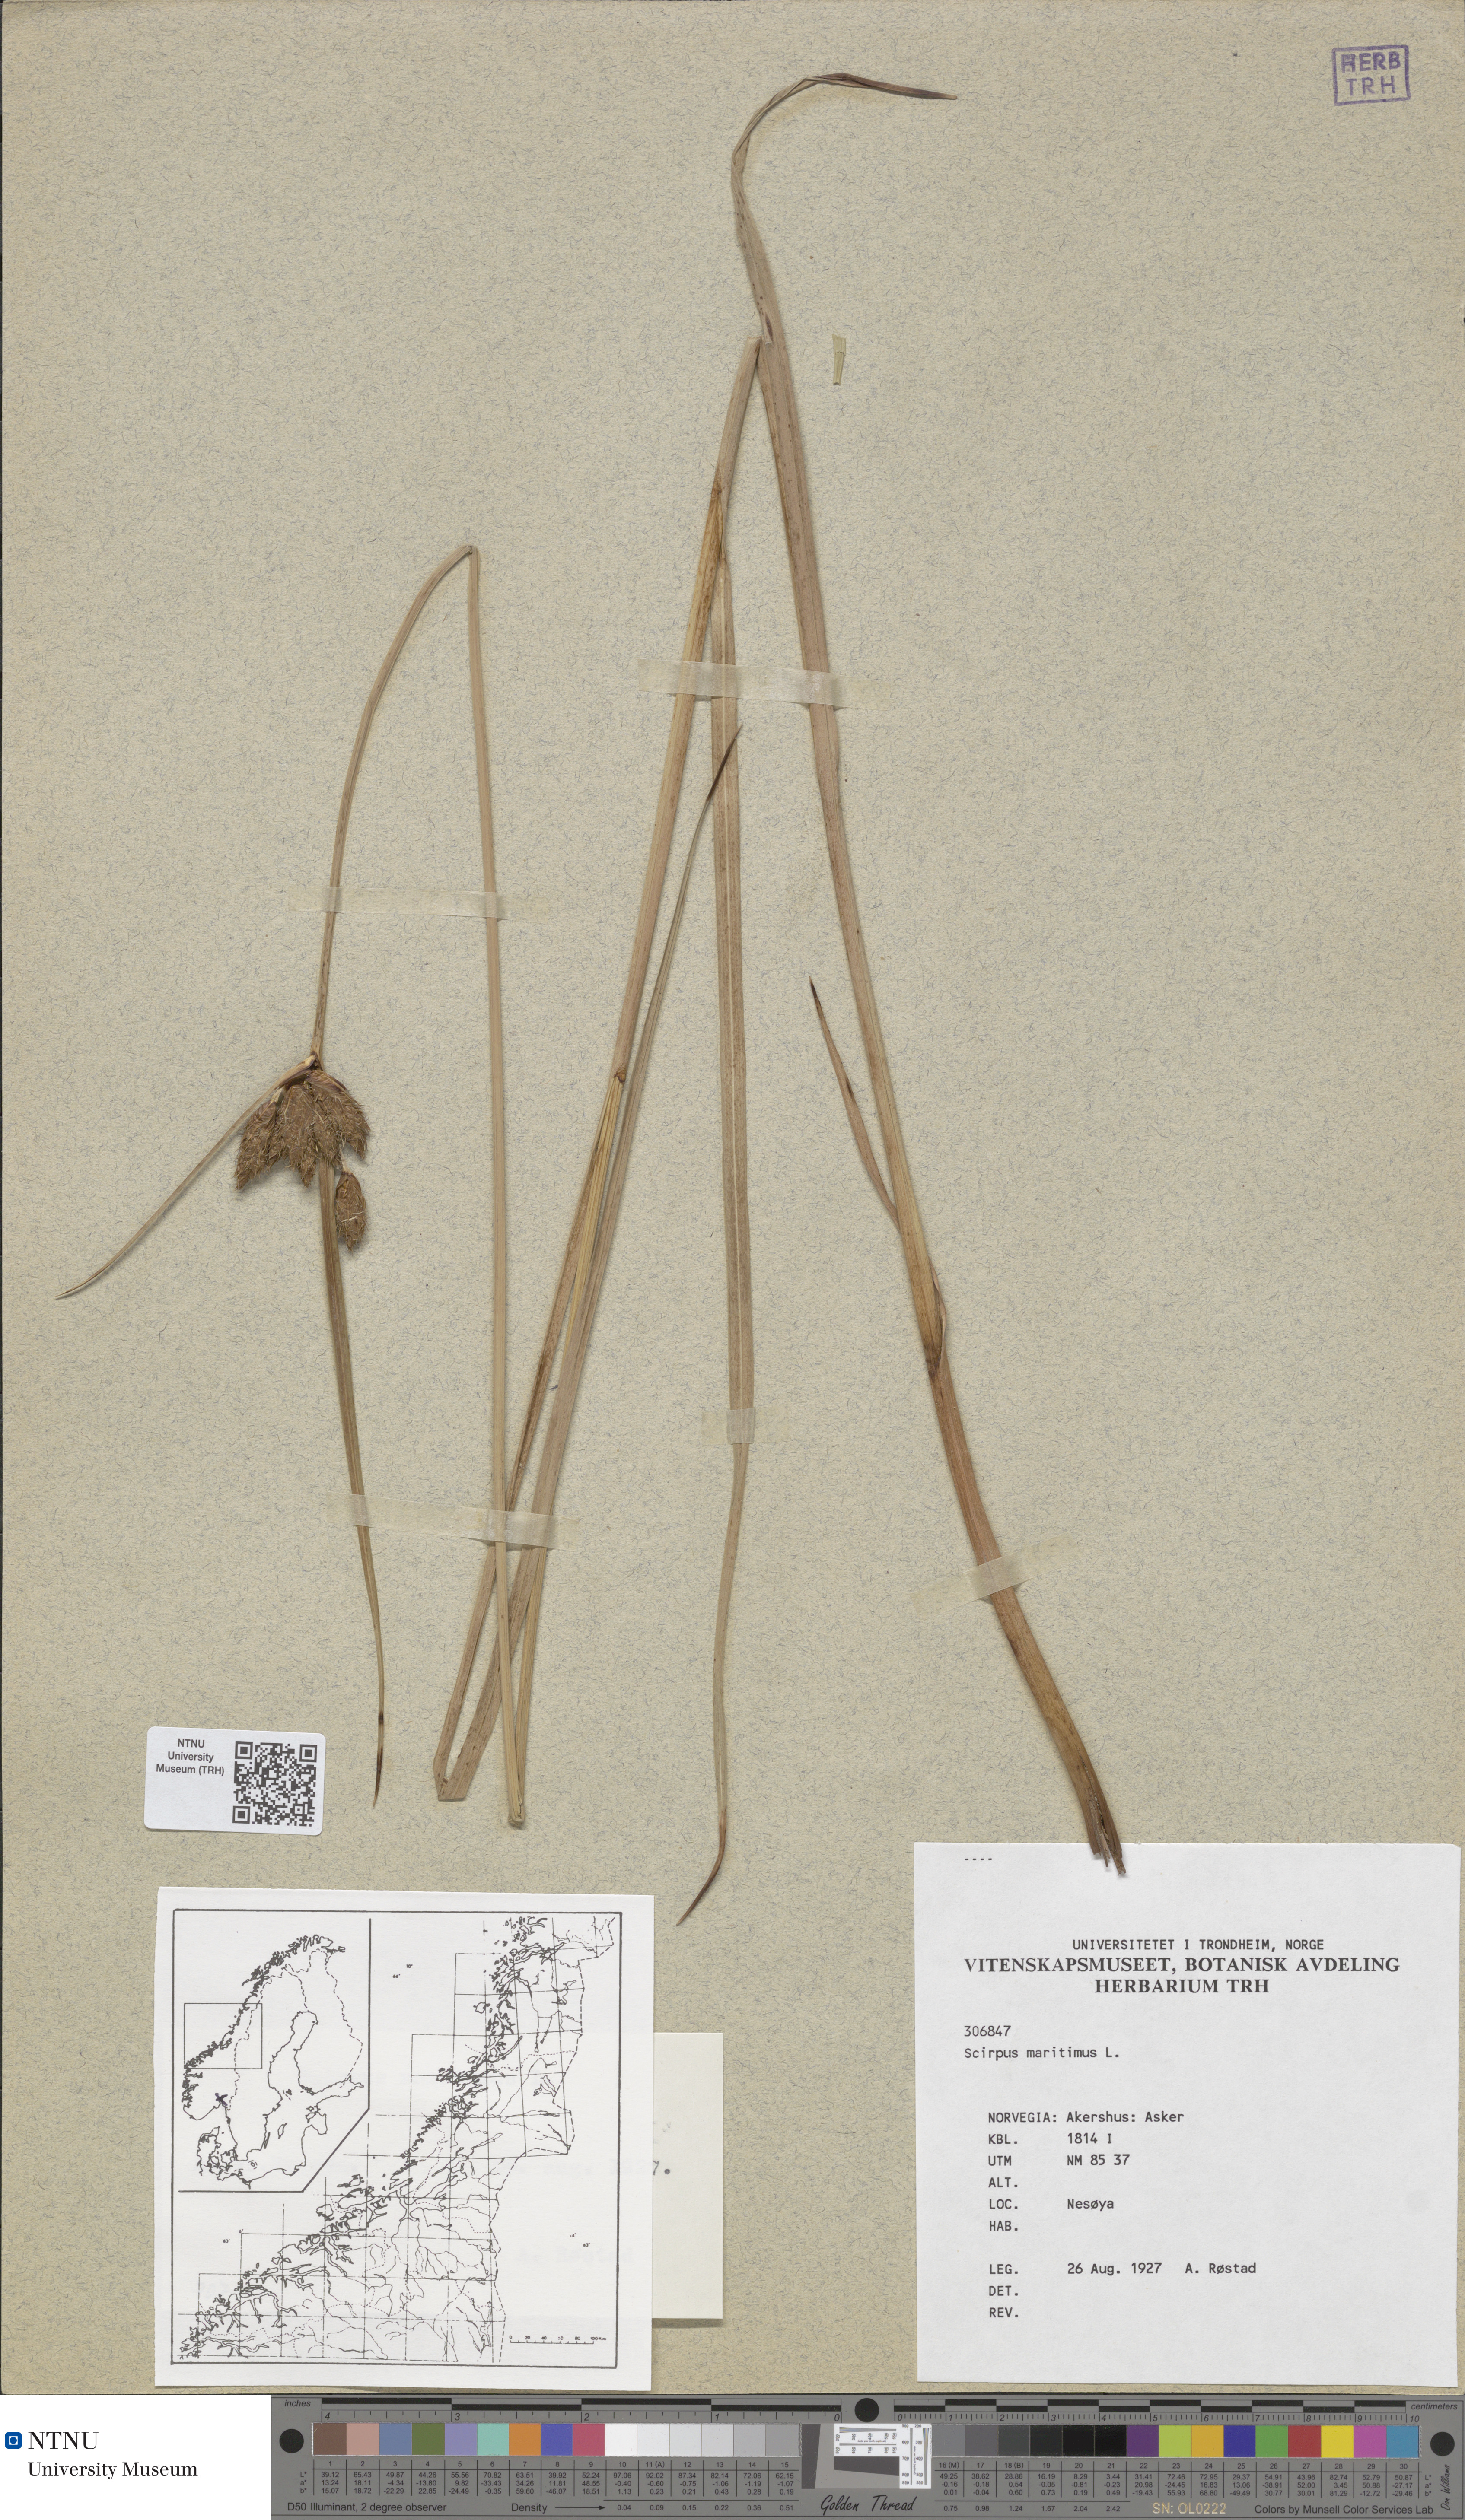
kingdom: Plantae
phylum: Tracheophyta
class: Liliopsida
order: Poales
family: Cyperaceae
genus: Bolboschoenus
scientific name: Bolboschoenus maritimus
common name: Sea club-rush
